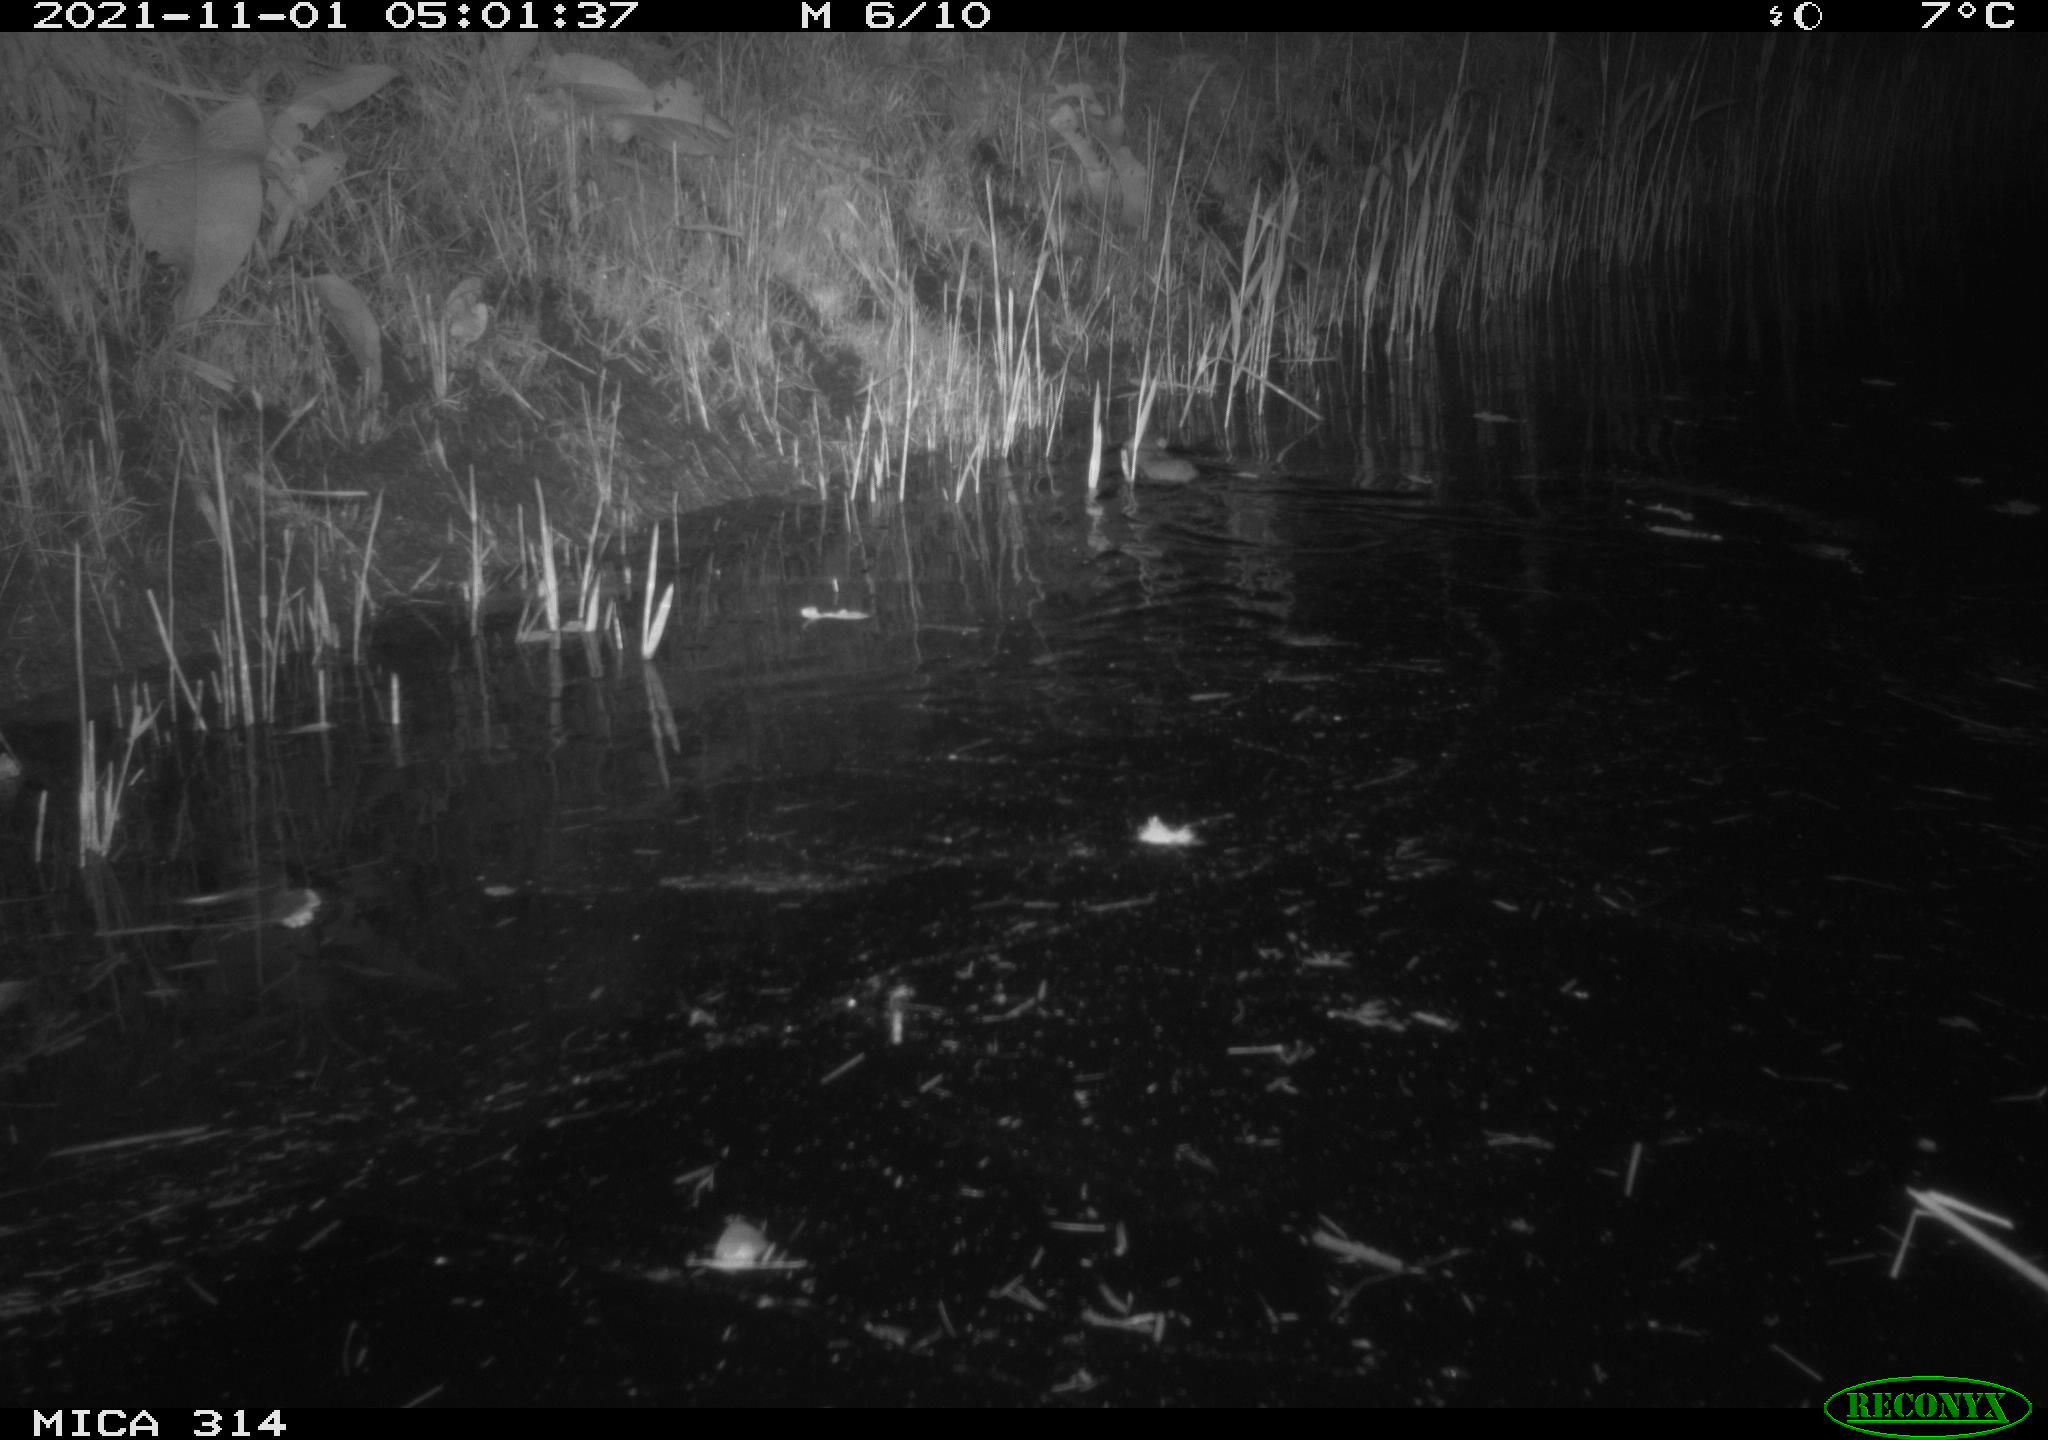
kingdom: Animalia
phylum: Chordata
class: Mammalia
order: Rodentia
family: Muridae
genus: Rattus
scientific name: Rattus norvegicus
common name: Brown rat
